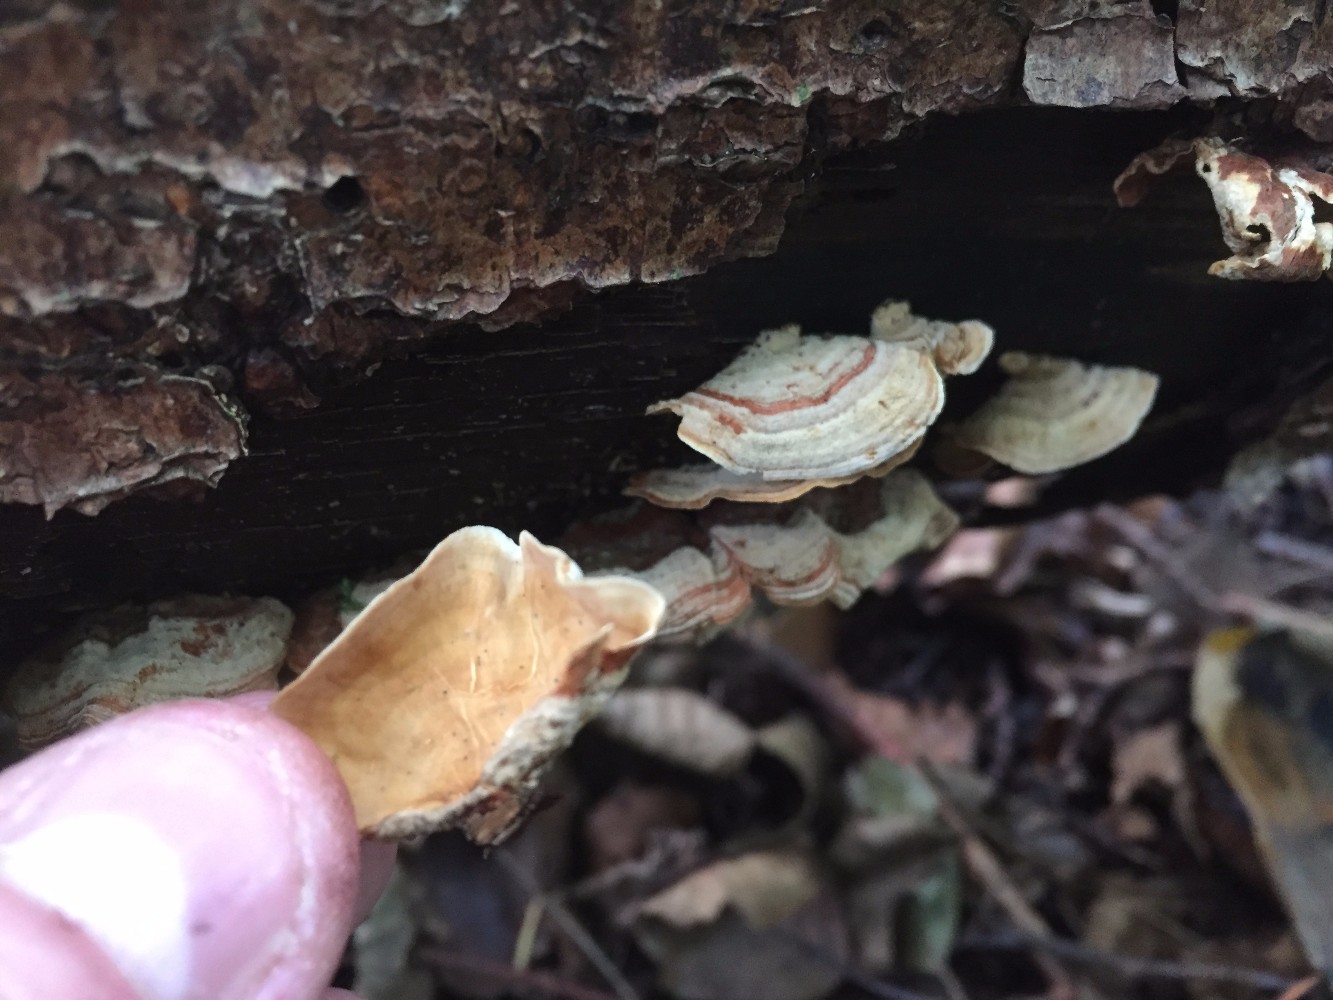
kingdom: Fungi
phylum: Basidiomycota
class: Agaricomycetes
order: Russulales
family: Stereaceae
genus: Stereum
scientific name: Stereum subtomentosum
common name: smuk lædersvamp
